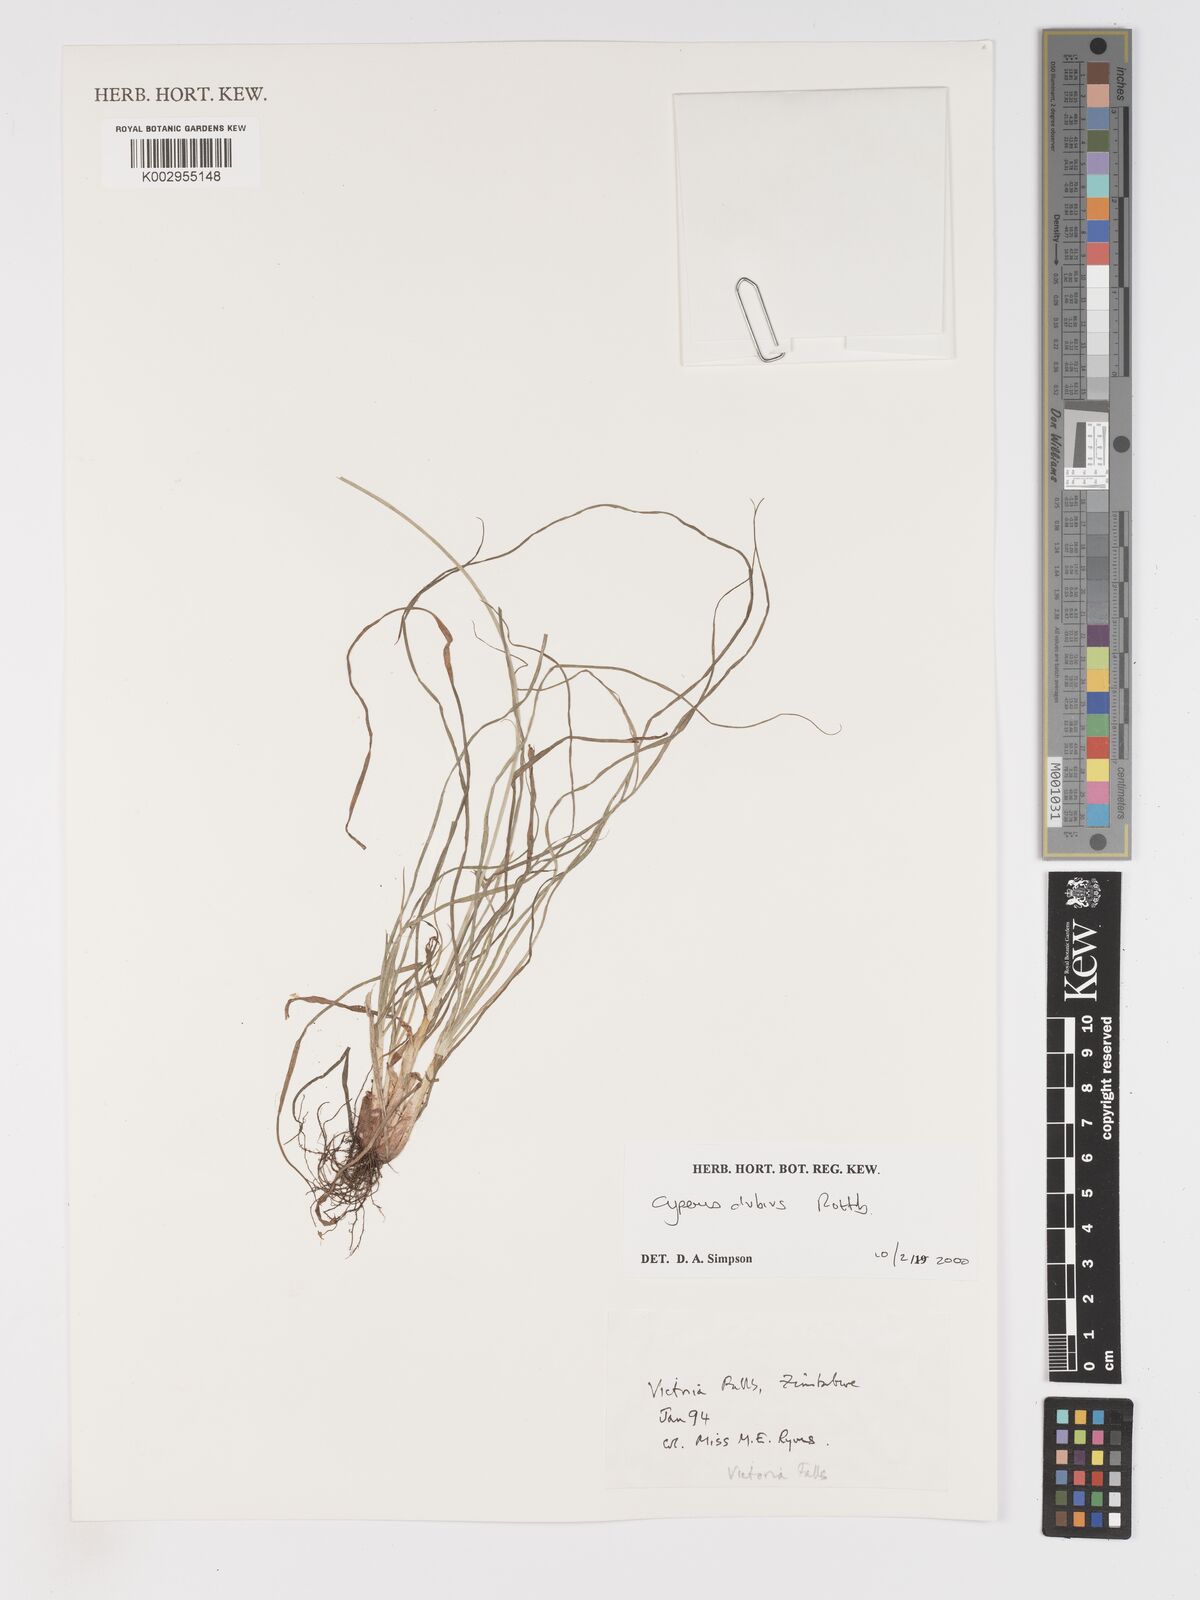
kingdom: Plantae
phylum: Tracheophyta
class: Liliopsida
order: Poales
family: Cyperaceae
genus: Cyperus
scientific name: Cyperus dubius
